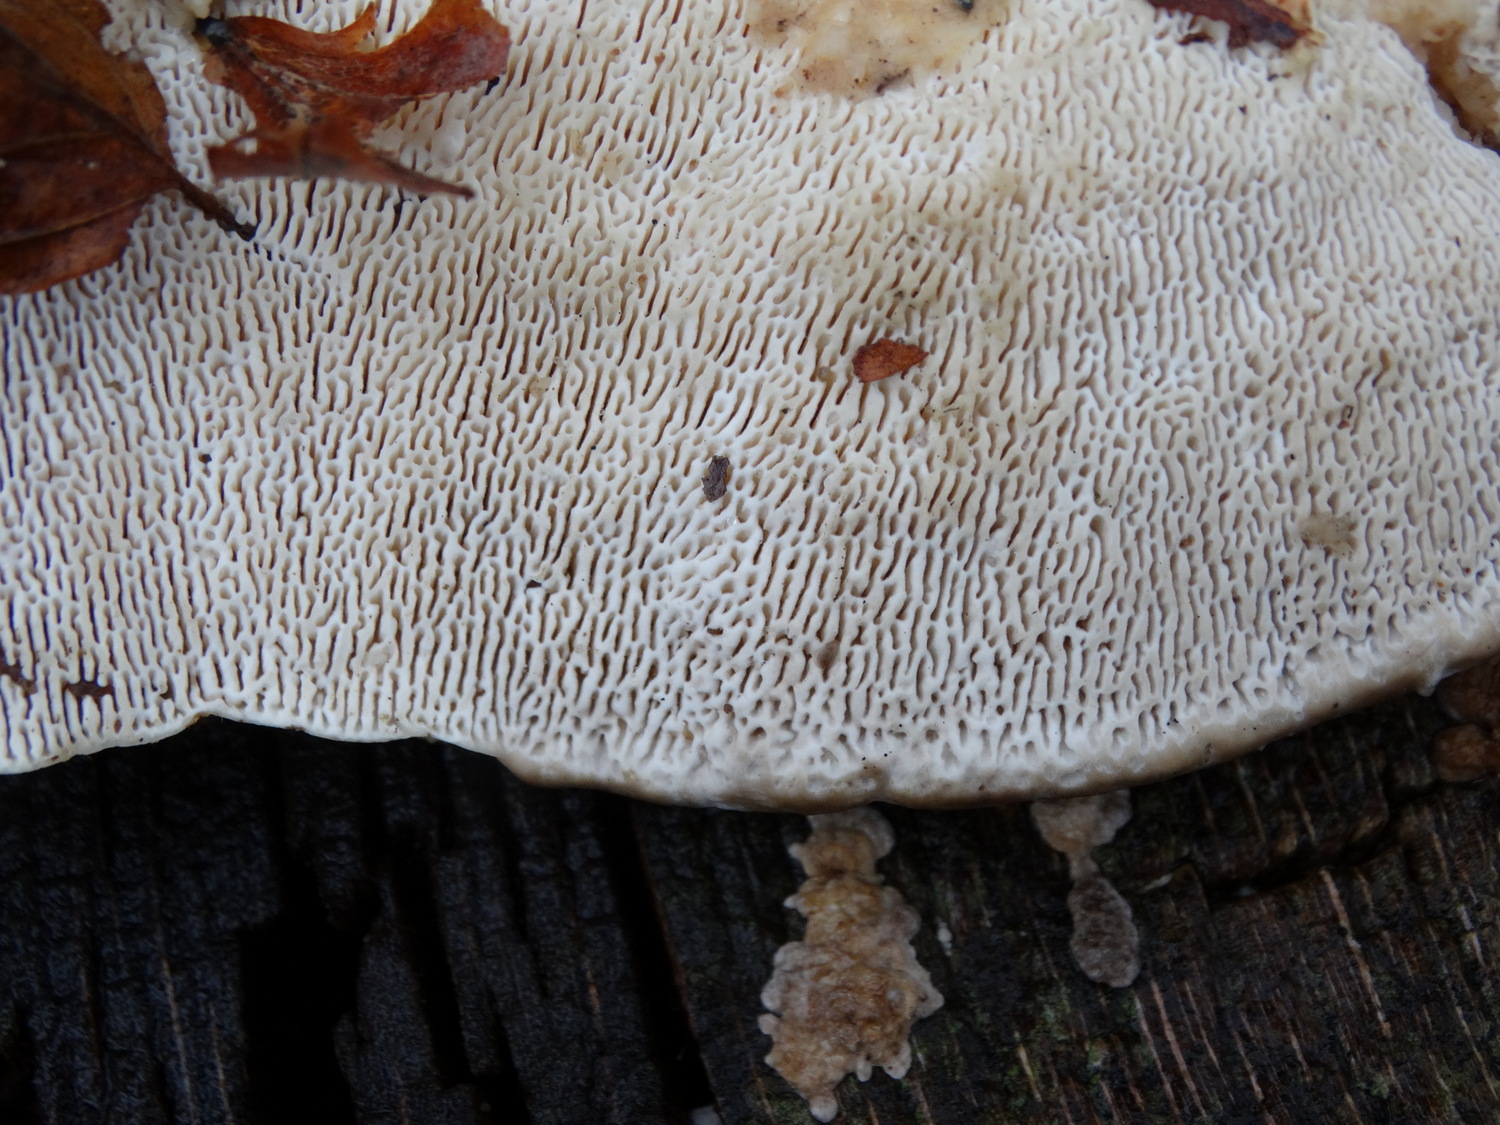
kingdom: Fungi
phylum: Basidiomycota
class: Agaricomycetes
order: Polyporales
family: Polyporaceae
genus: Trametes
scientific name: Trametes gibbosa
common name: puklet læderporesvamp
